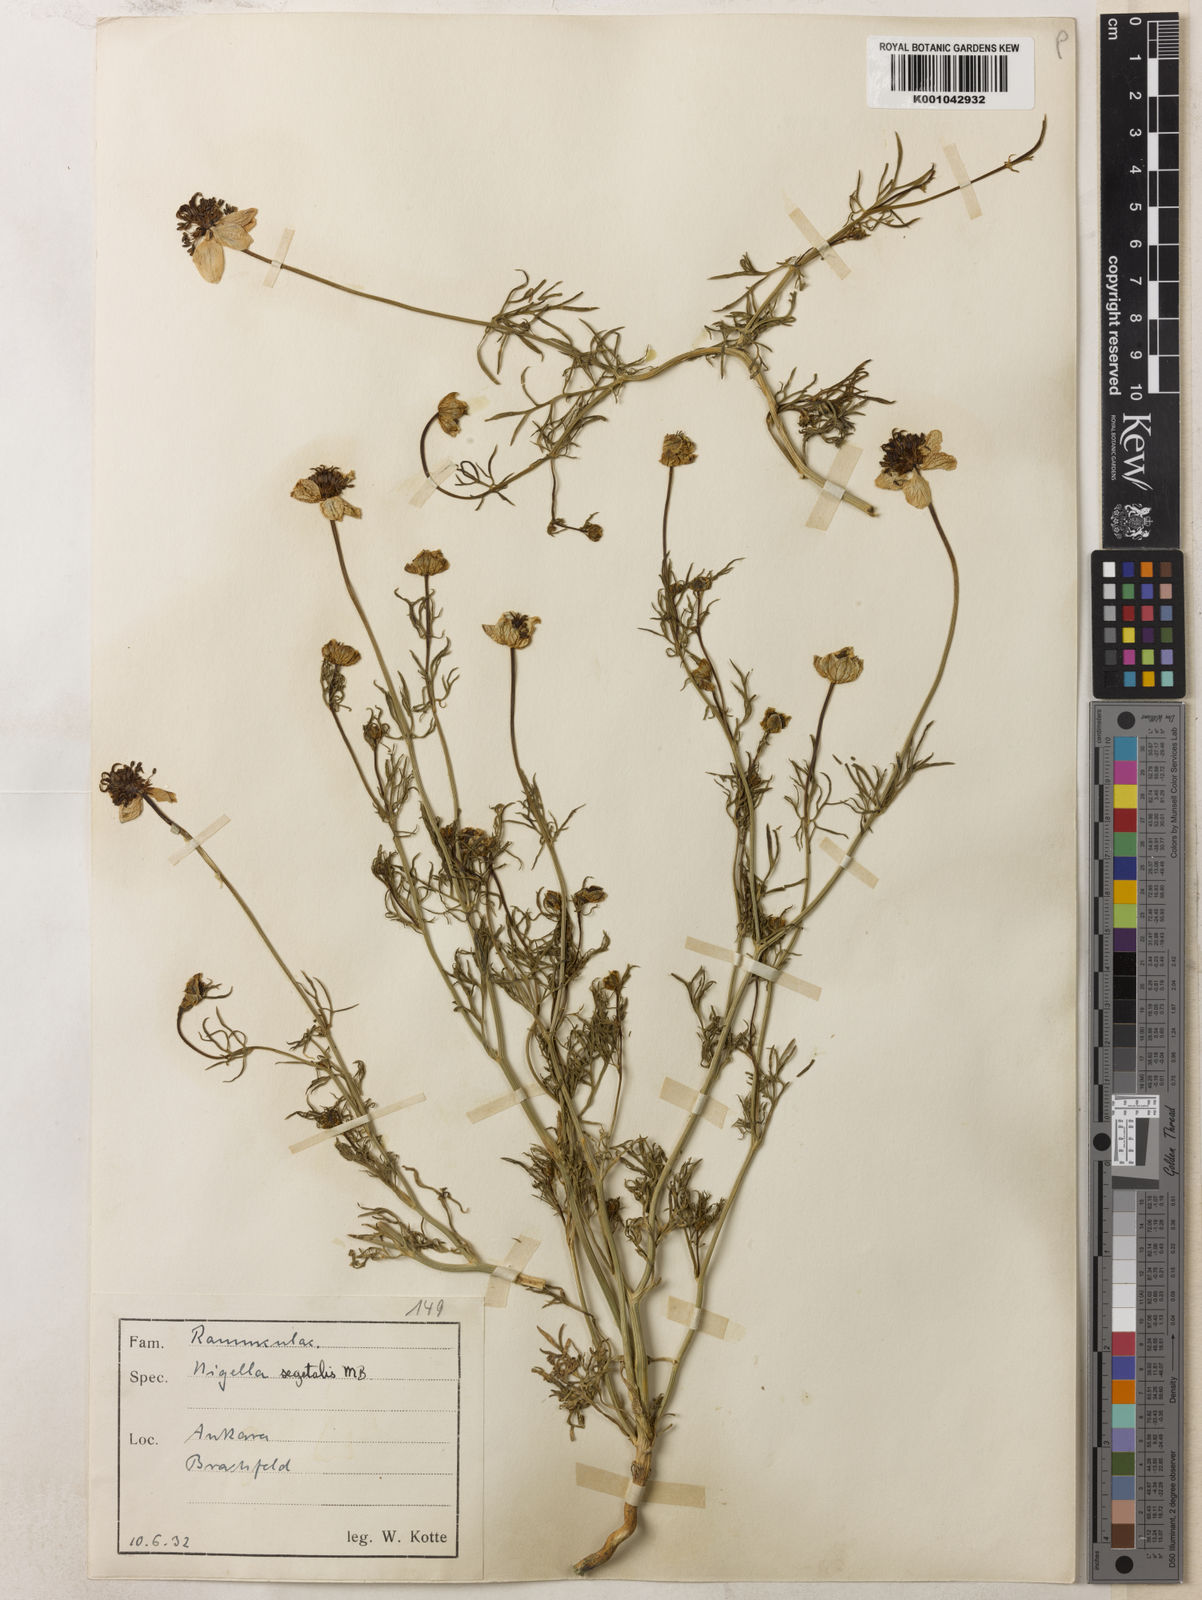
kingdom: Plantae
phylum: Tracheophyta
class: Magnoliopsida
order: Ranunculales
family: Ranunculaceae
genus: Nigella
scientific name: Nigella segetalis
